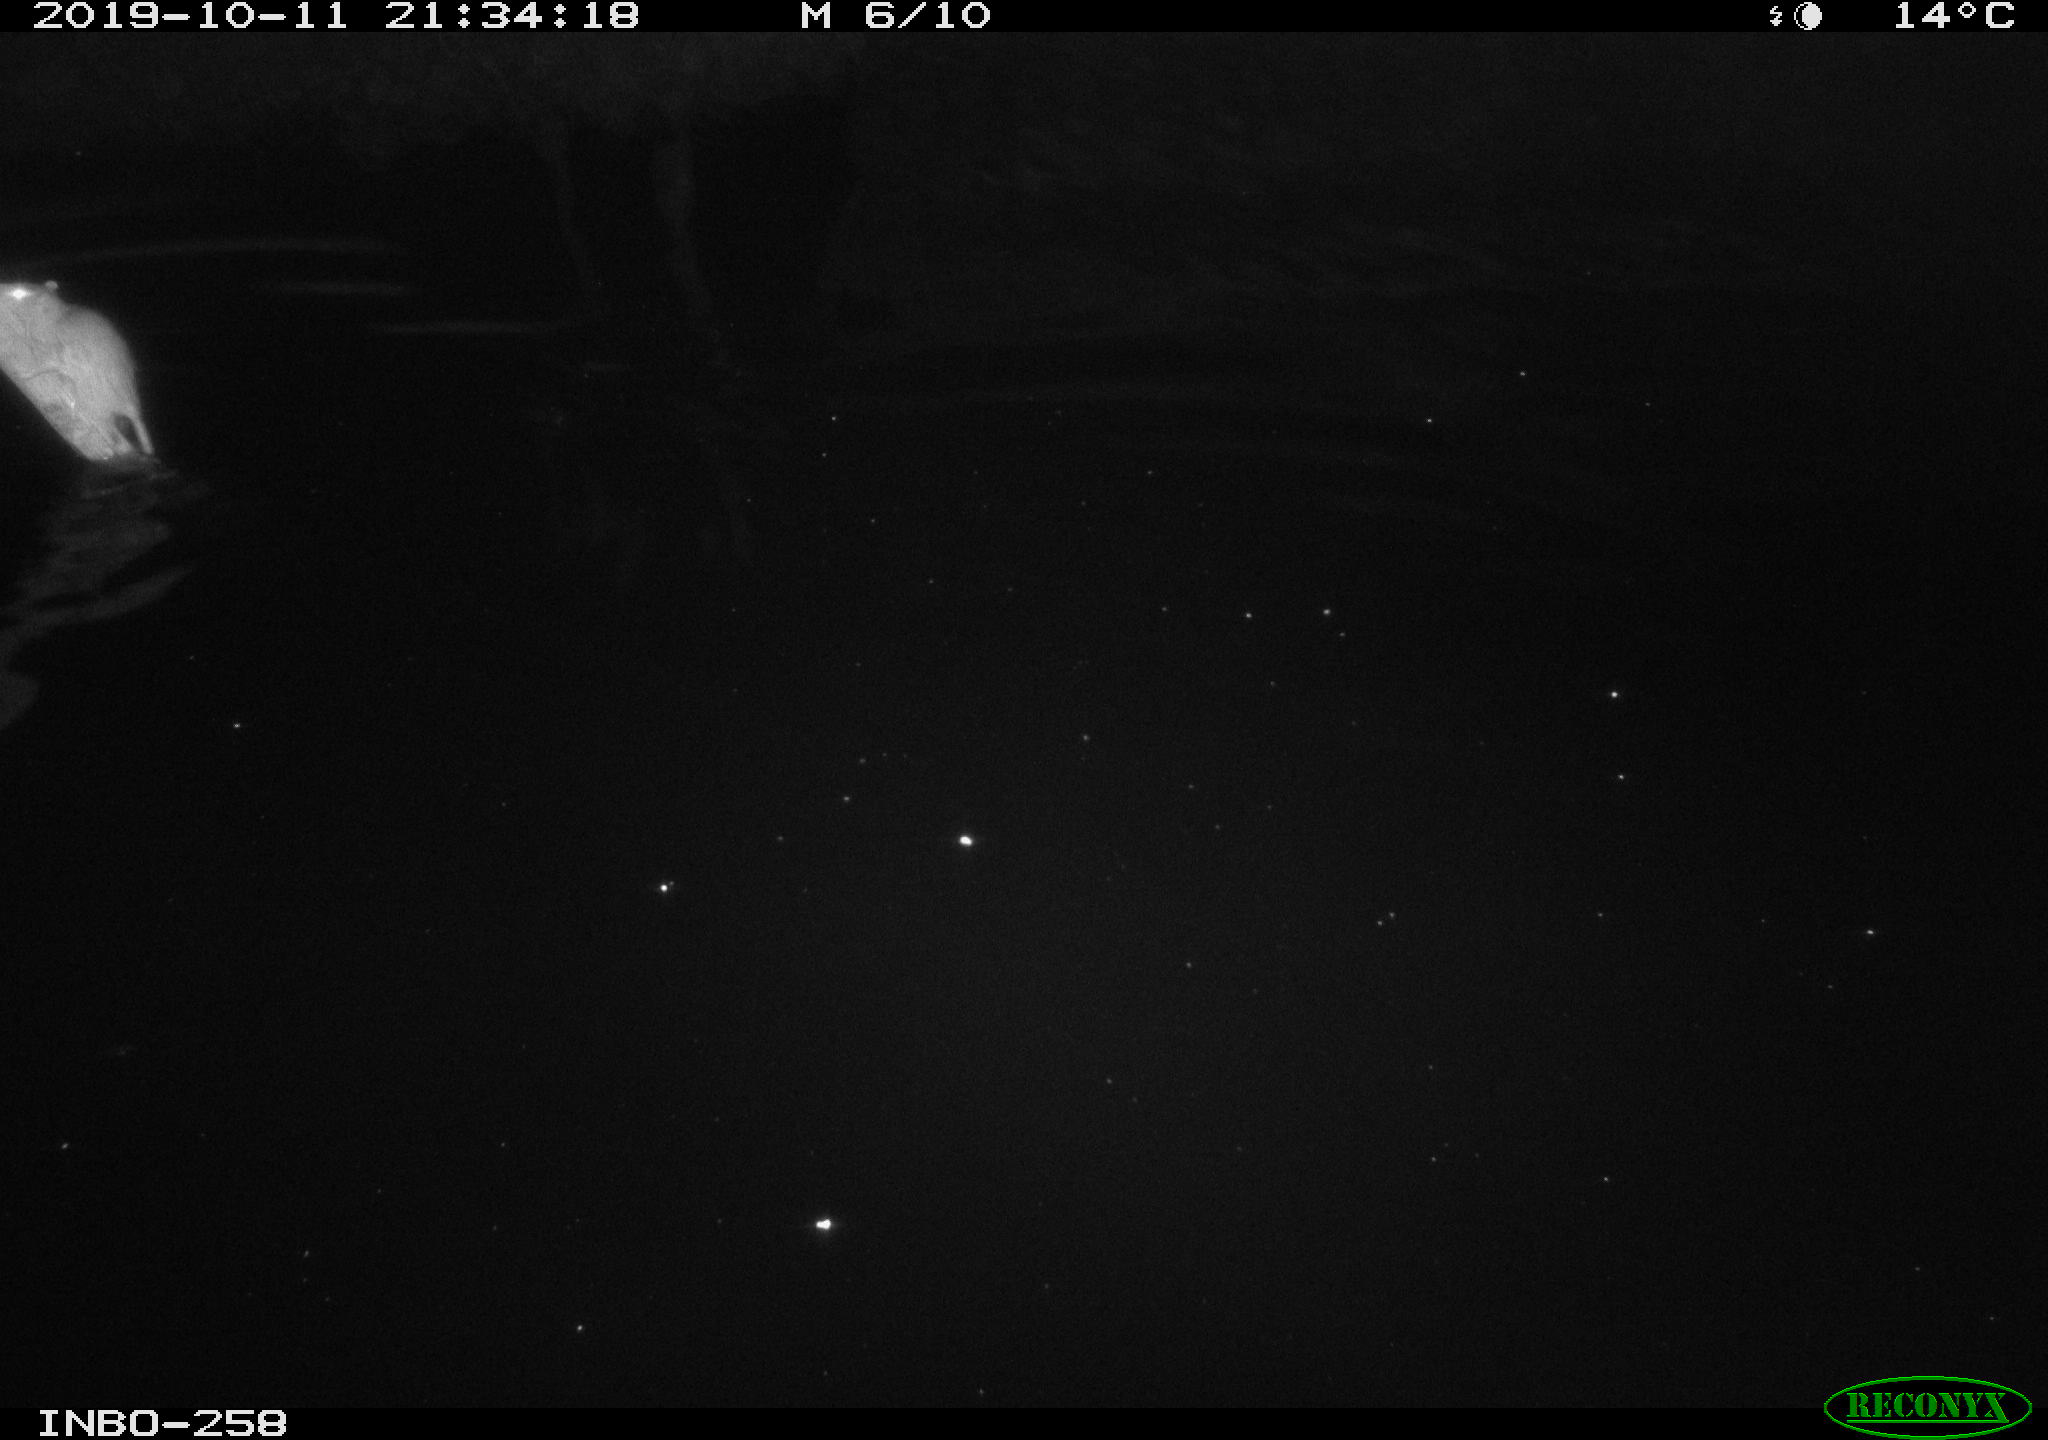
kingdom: Animalia
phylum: Chordata
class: Mammalia
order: Rodentia
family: Muridae
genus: Rattus
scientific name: Rattus norvegicus
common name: Brown rat
